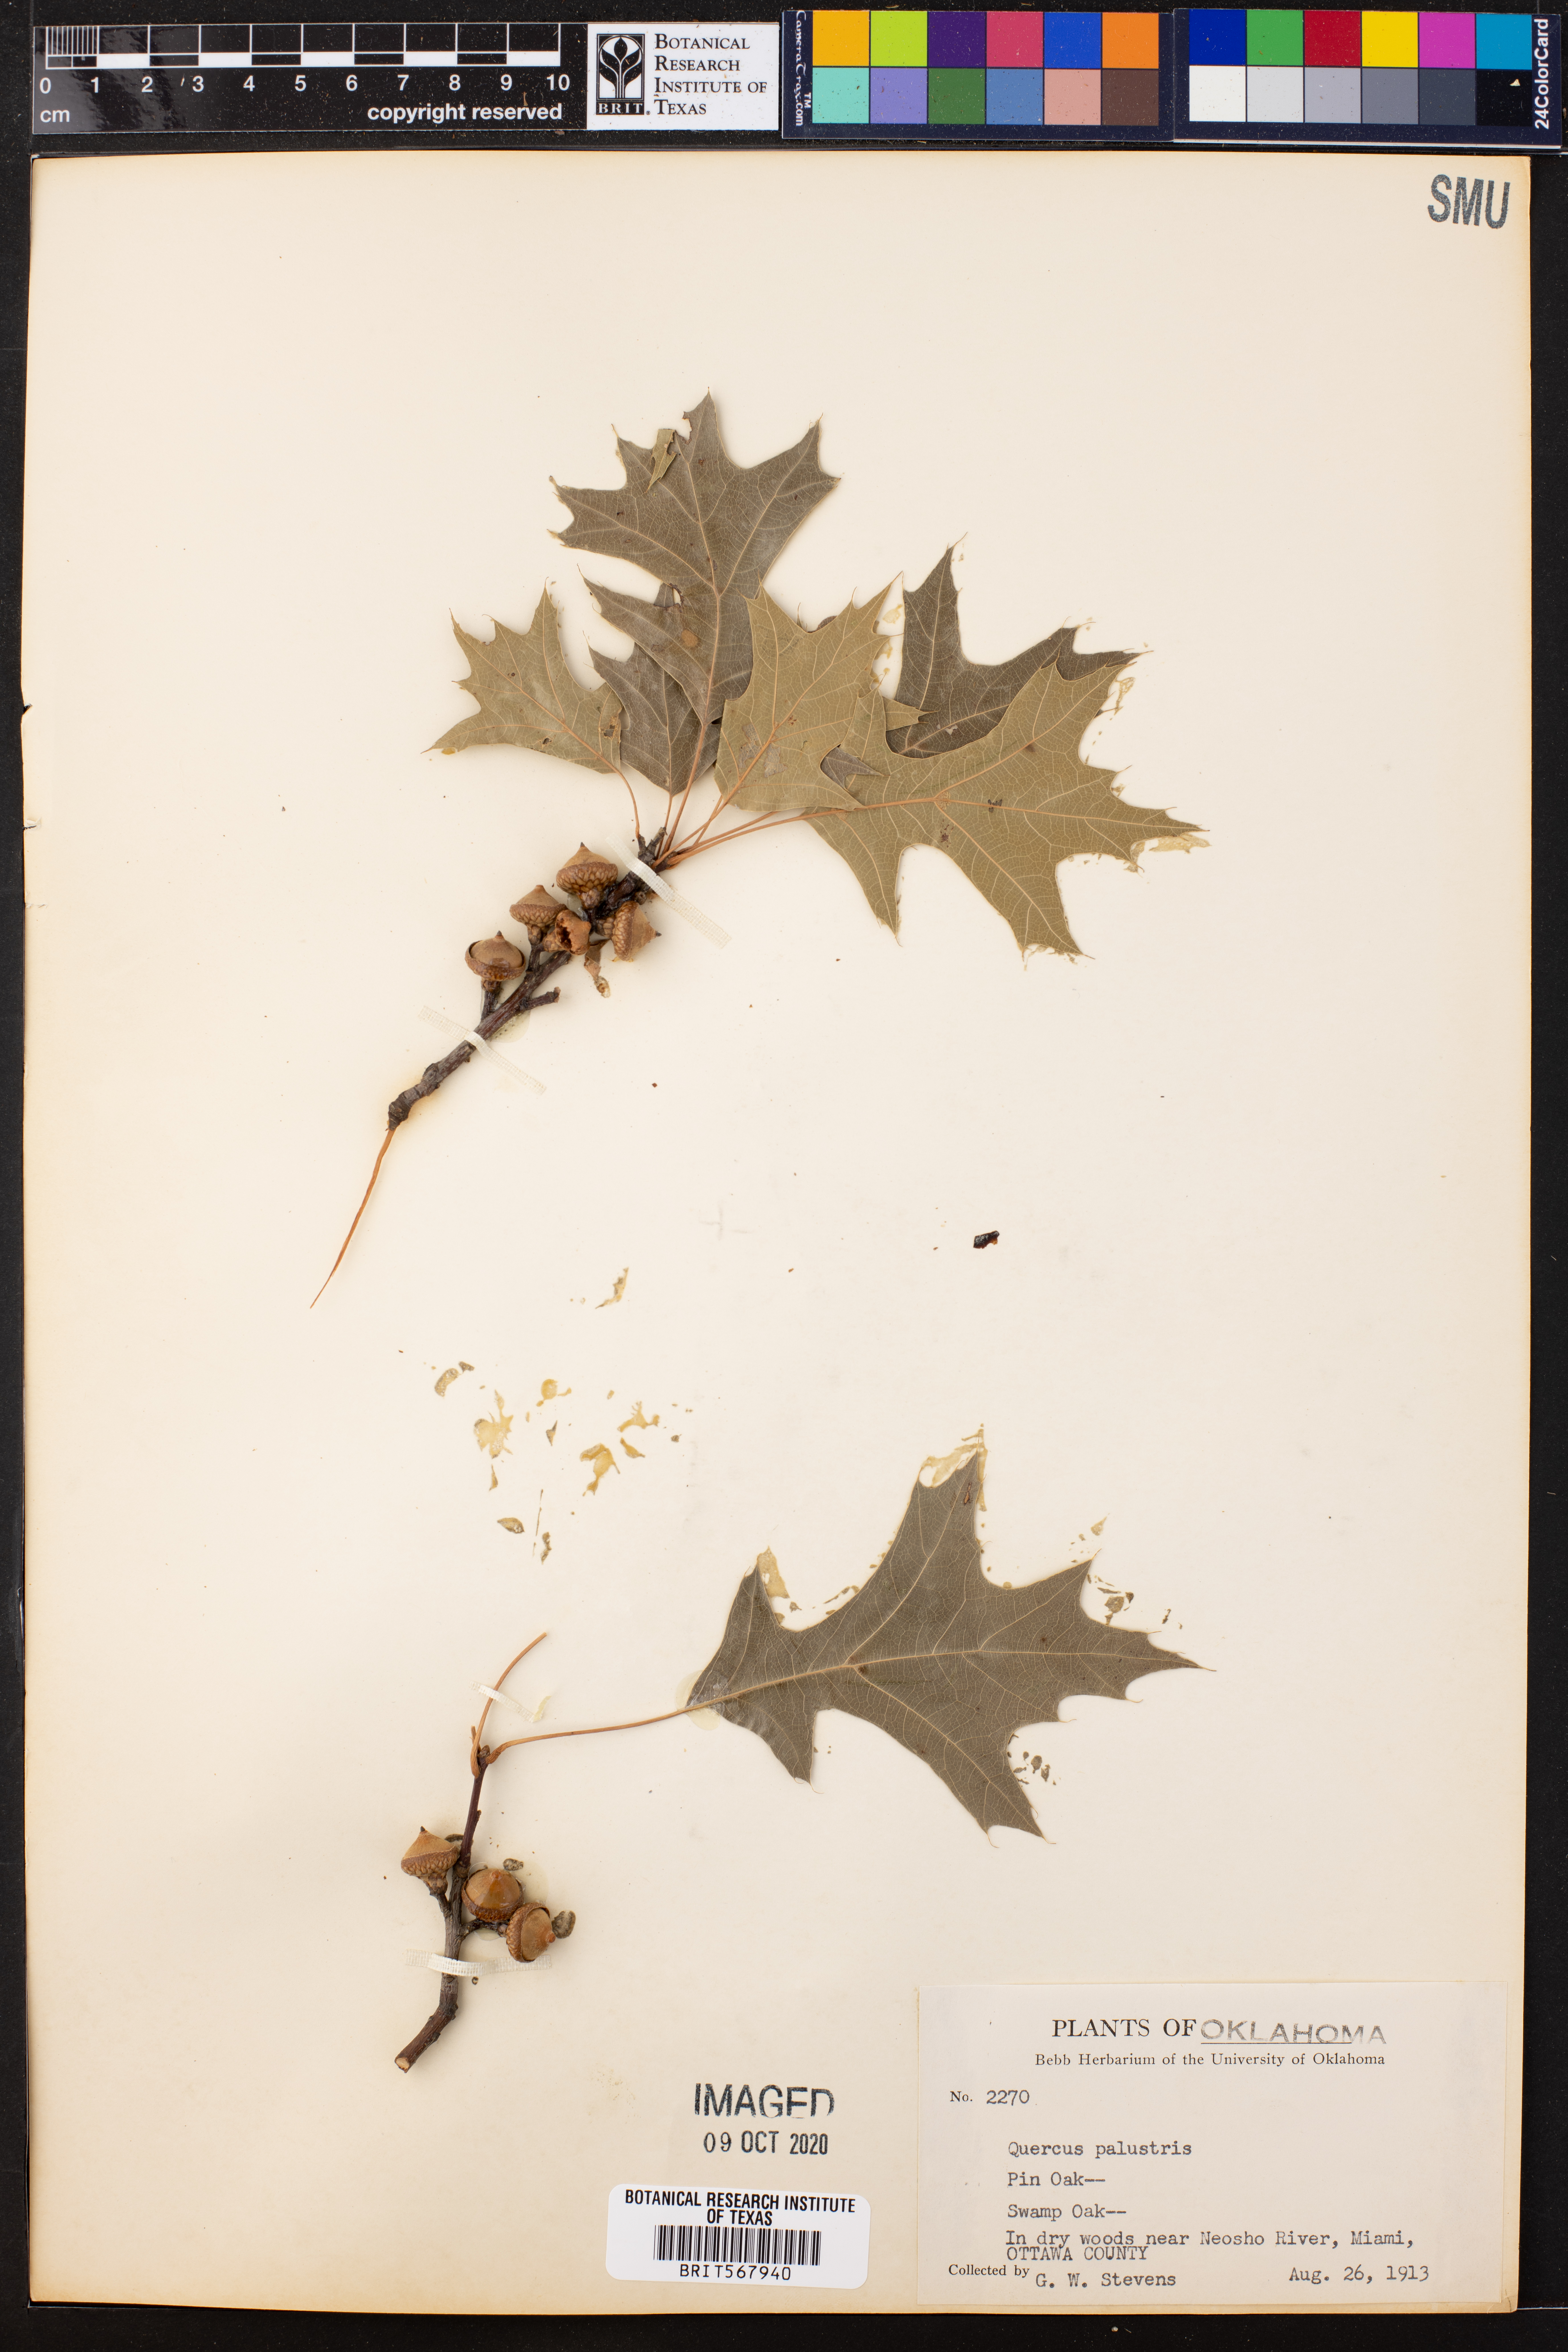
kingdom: Plantae
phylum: Tracheophyta
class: Magnoliopsida
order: Fagales
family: Fagaceae
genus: Quercus
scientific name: Quercus palustris
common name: Pin oak
